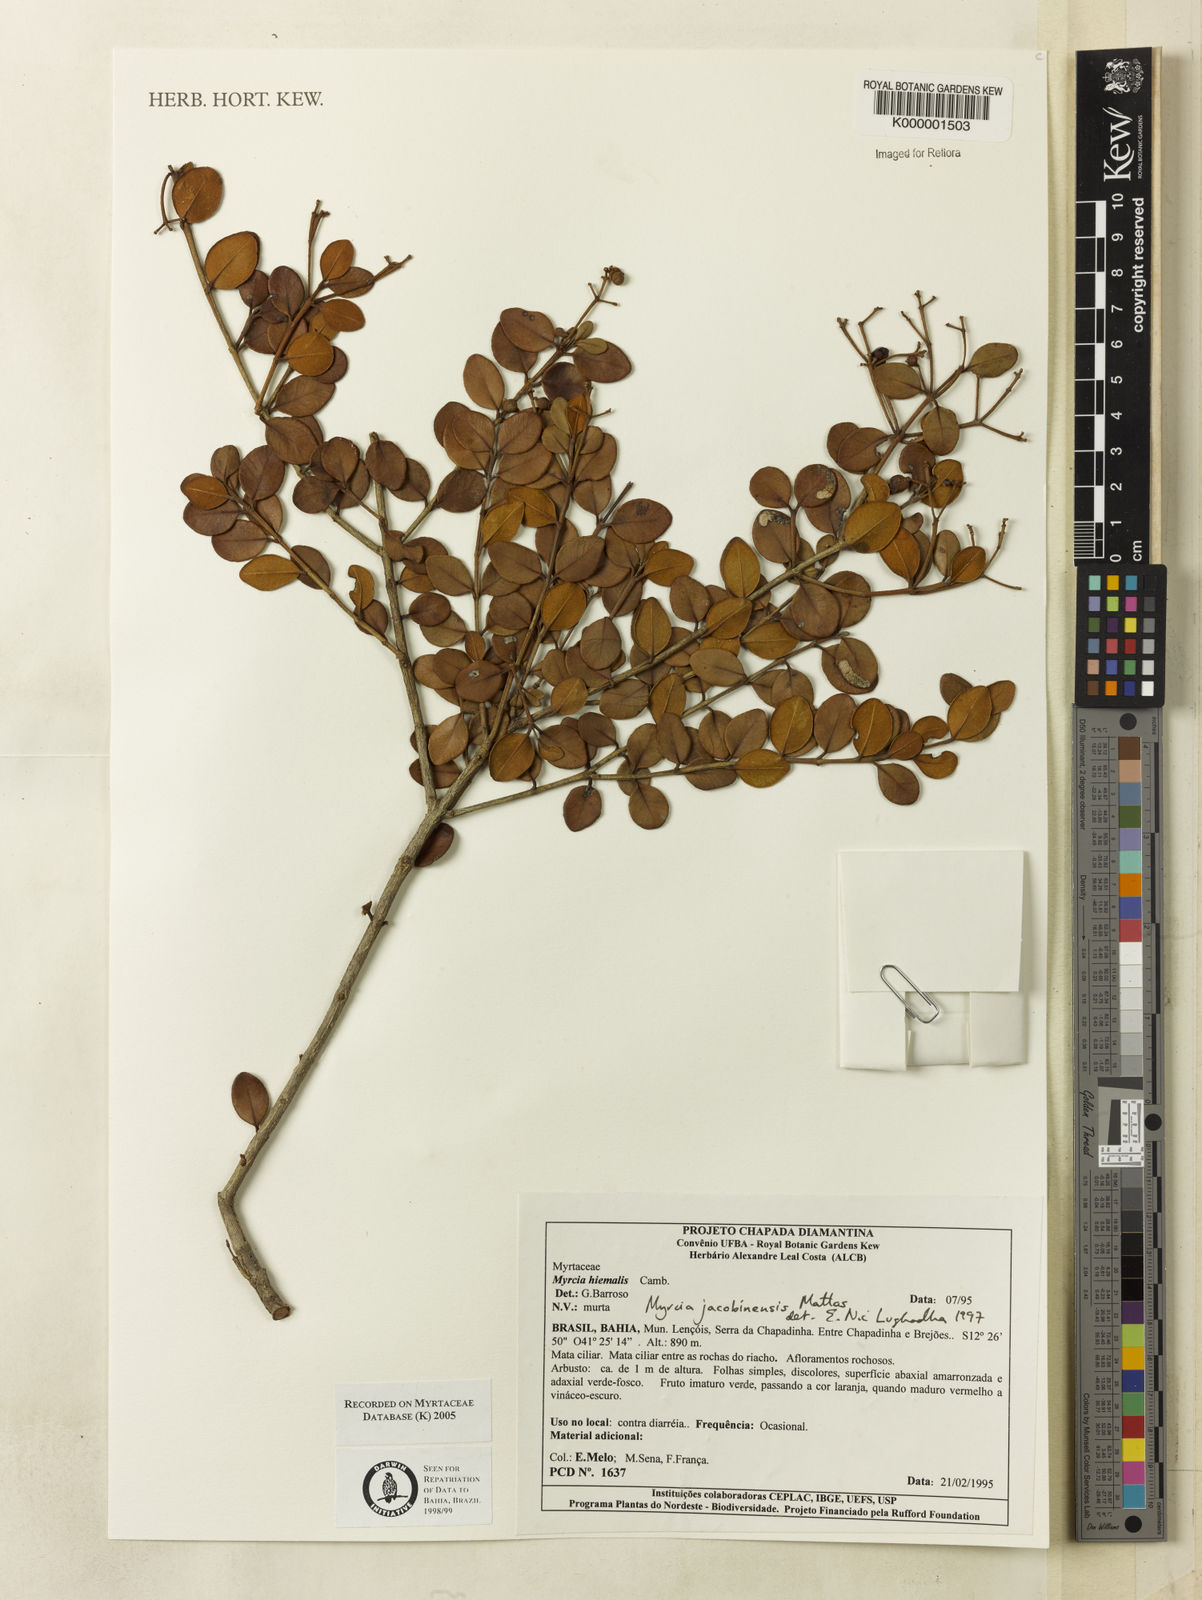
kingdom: Plantae
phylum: Tracheophyta
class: Magnoliopsida
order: Myrtales
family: Myrtaceae
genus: Myrcia
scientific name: Myrcia jacobinensis
